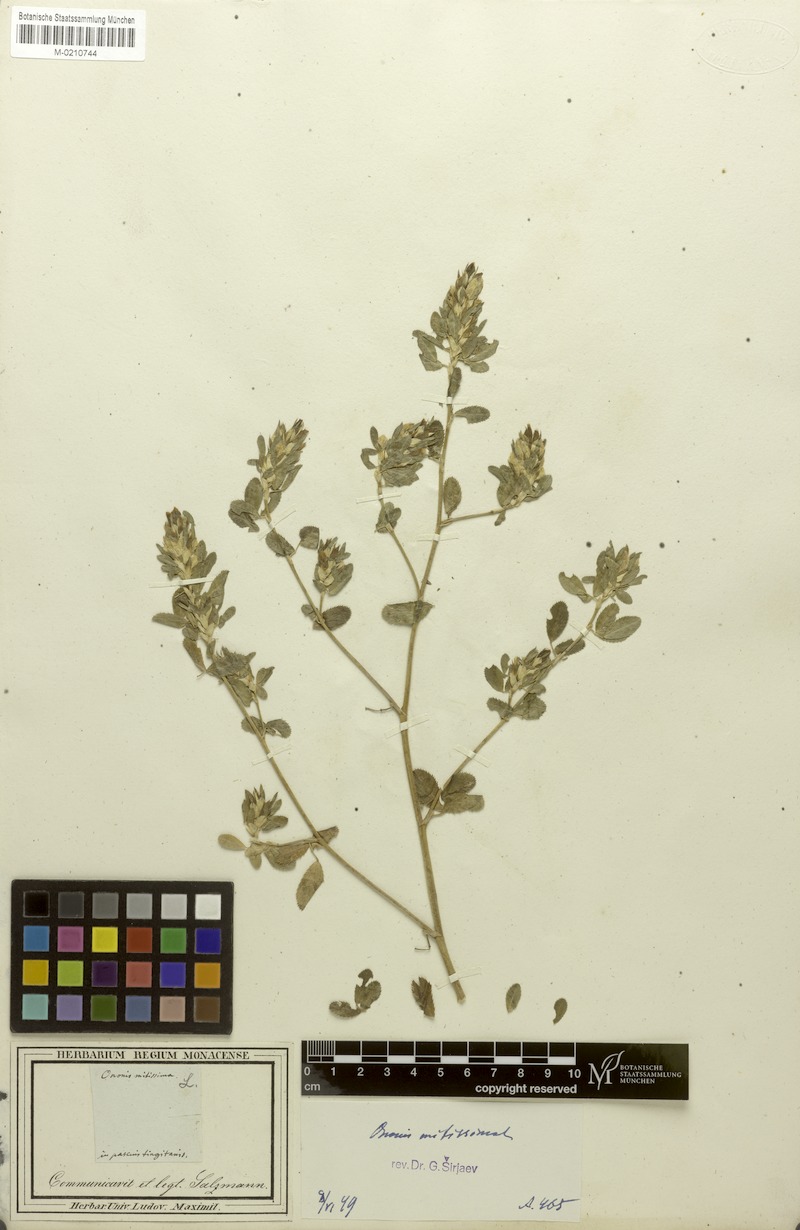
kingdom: Plantae
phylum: Tracheophyta
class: Magnoliopsida
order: Fabales
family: Fabaceae
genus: Ononis
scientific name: Ononis mitissima
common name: Mediterranean restharrow
